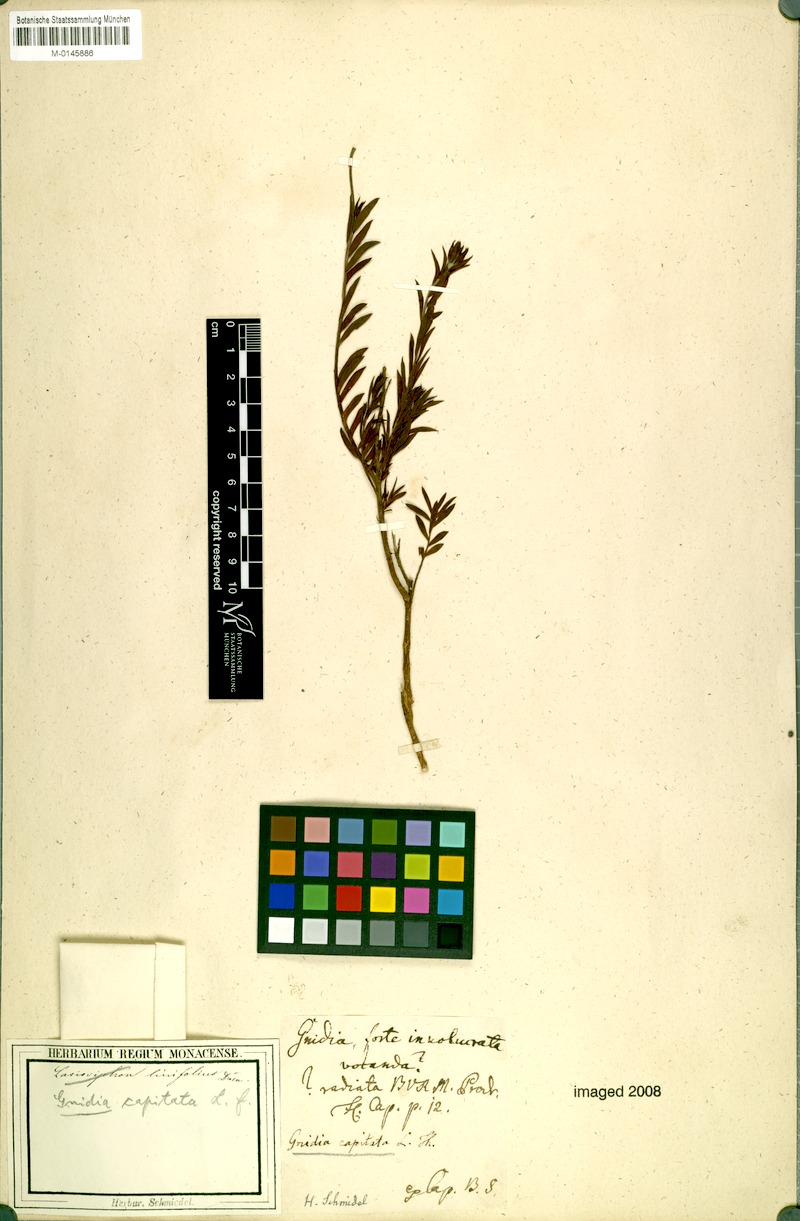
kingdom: Plantae
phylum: Tracheophyta
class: Magnoliopsida
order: Malvales
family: Thymelaeaceae
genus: Gnidia
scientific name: Gnidia capitata
